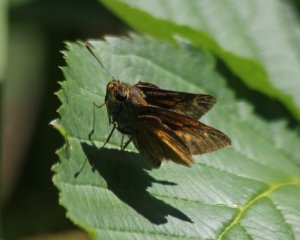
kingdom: Animalia
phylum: Arthropoda
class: Insecta
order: Lepidoptera
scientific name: Lepidoptera
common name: Butterflies
